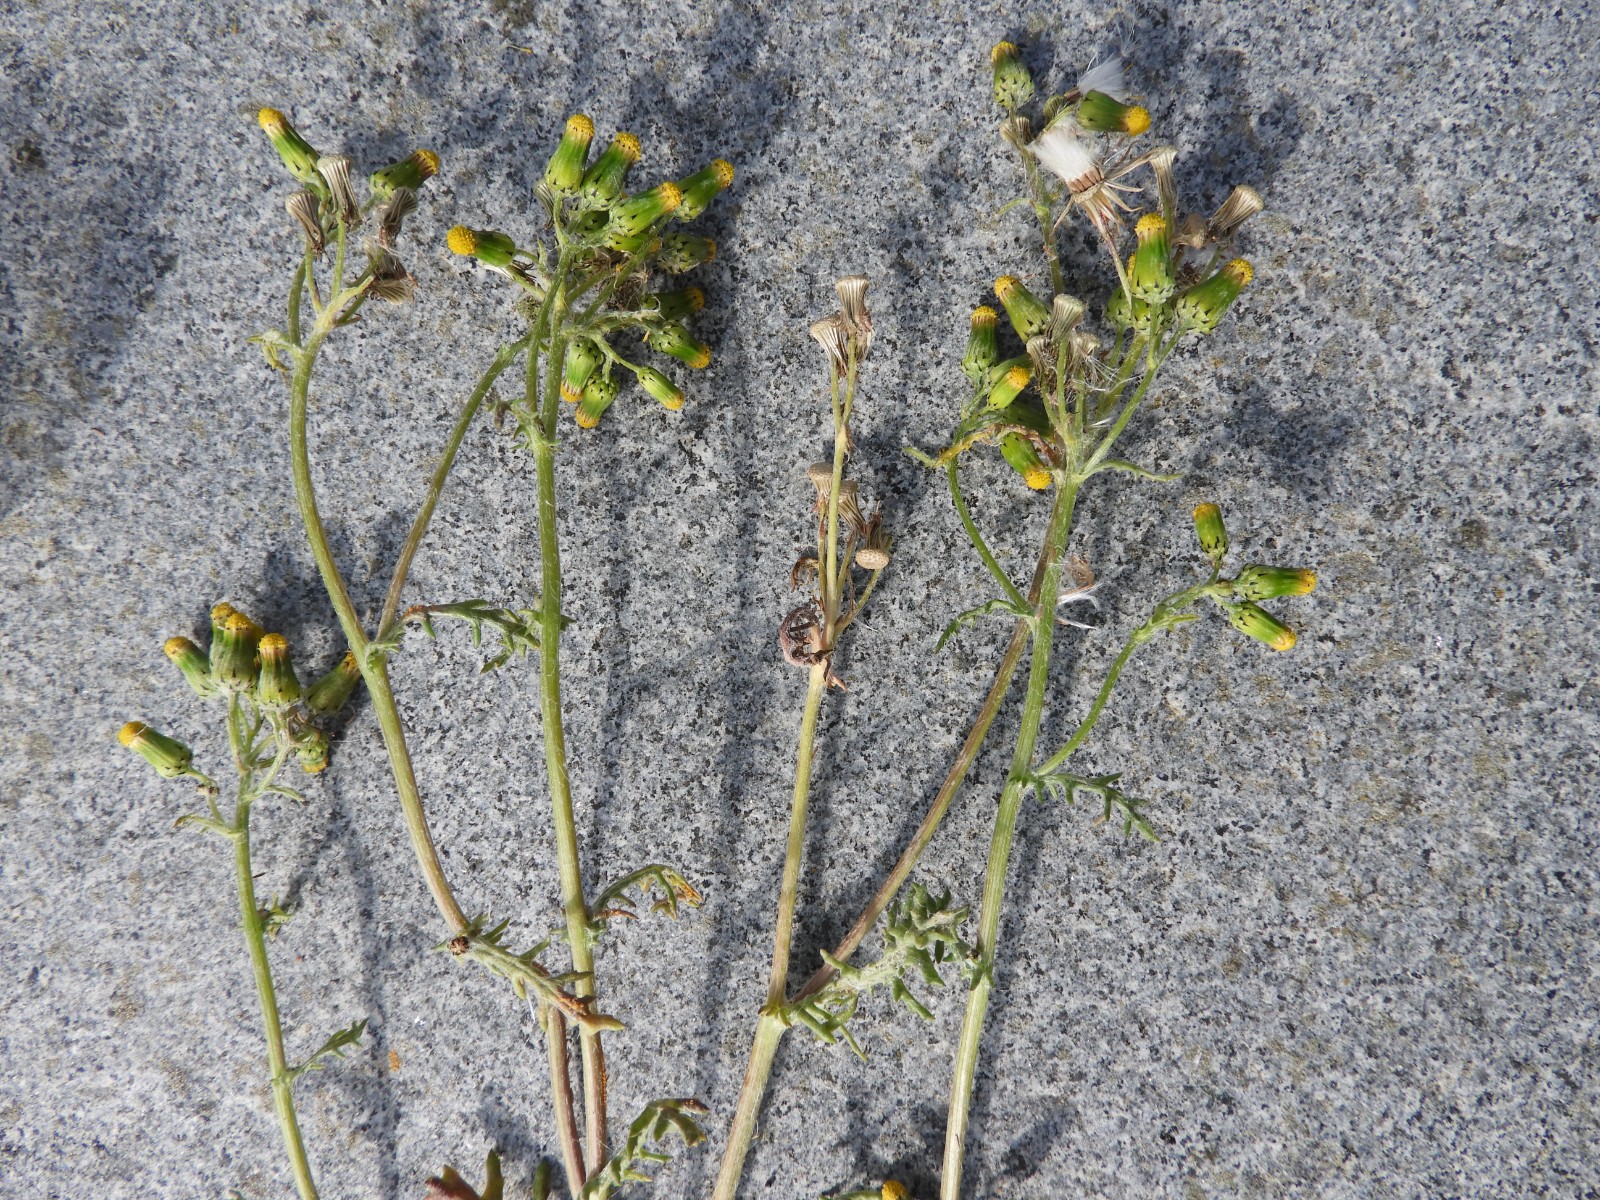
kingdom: Fungi
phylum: Basidiomycota
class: Pucciniomycetes
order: Pucciniales
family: Pucciniaceae
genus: Puccinia
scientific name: Puccinia lagenophorae
